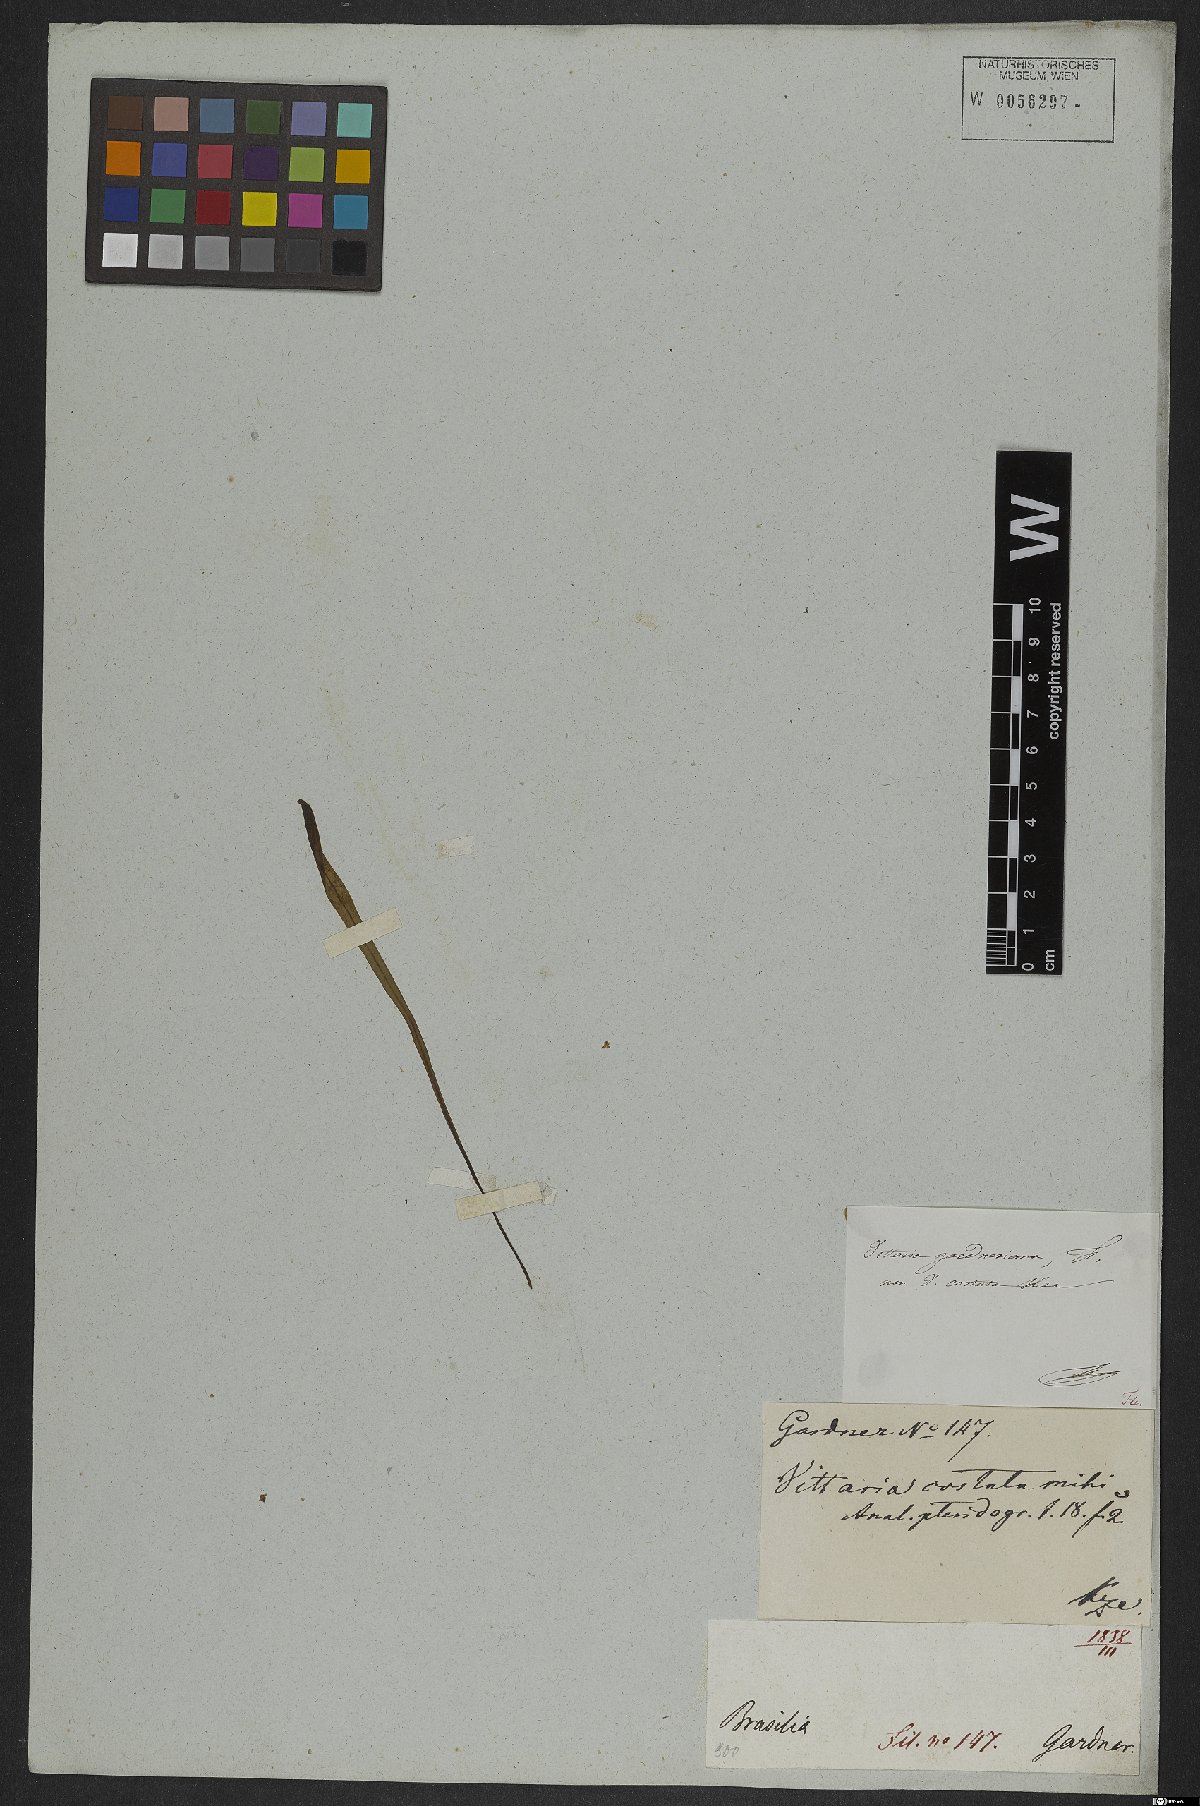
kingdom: Plantae
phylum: Tracheophyta
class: Polypodiopsida
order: Polypodiales
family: Pteridaceae
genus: Ananthacorus
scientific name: Ananthacorus angustifolius
